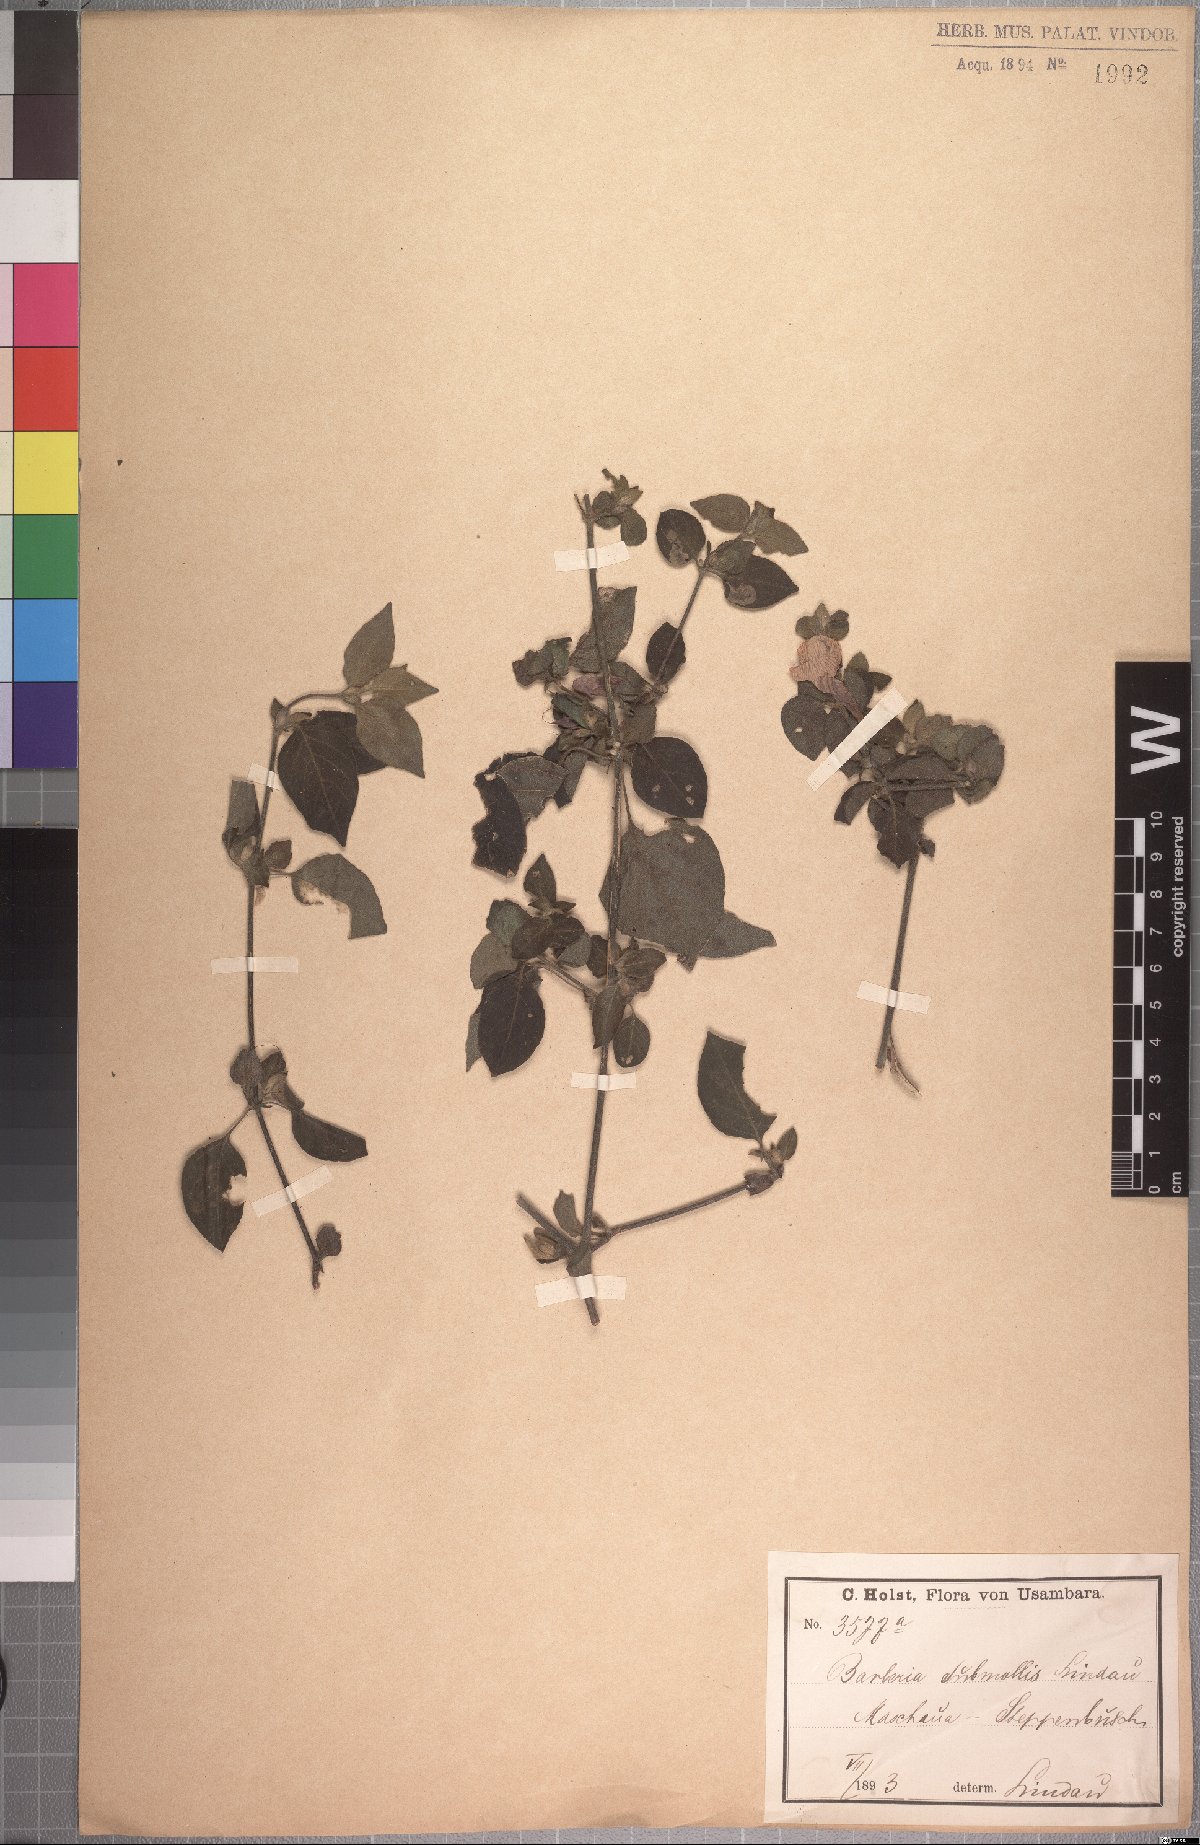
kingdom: Plantae
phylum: Tracheophyta
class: Magnoliopsida
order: Lamiales
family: Acanthaceae
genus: Barleria
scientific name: Barleria submollis
